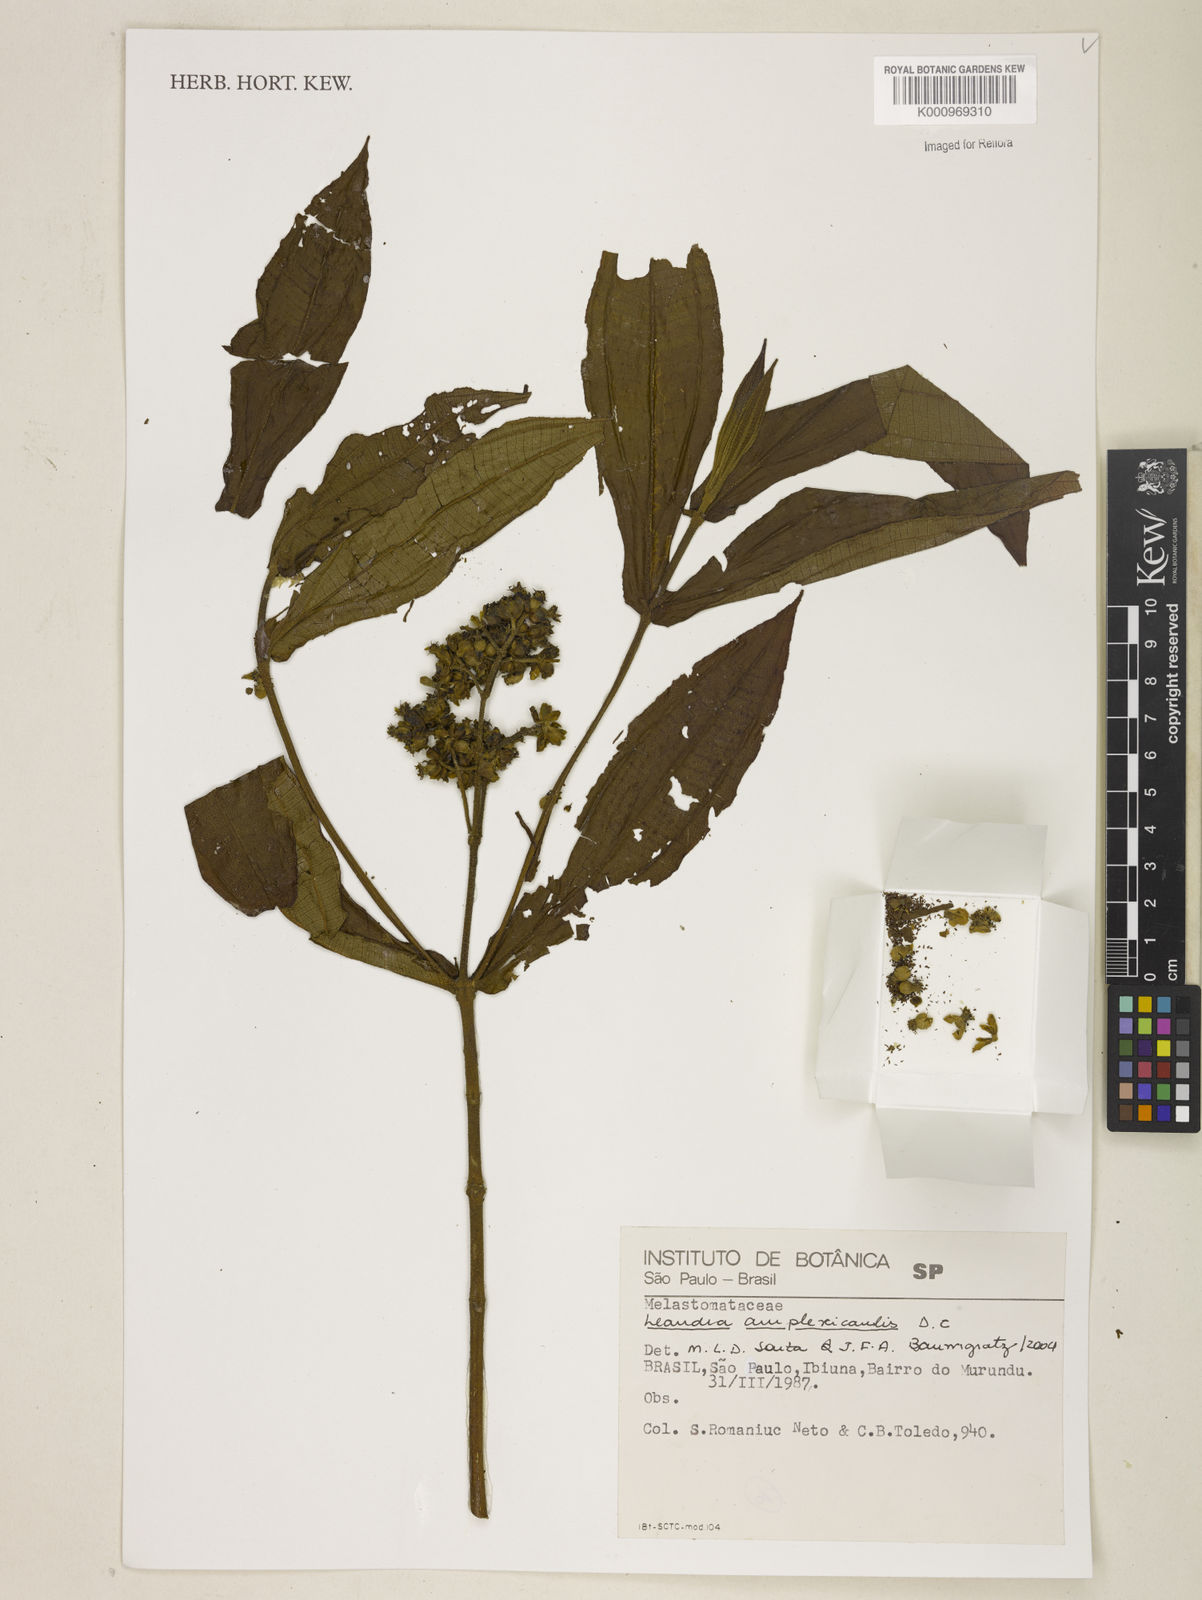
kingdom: Plantae
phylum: Tracheophyta
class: Magnoliopsida
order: Myrtales
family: Melastomataceae
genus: Miconia
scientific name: Miconia pectinata
